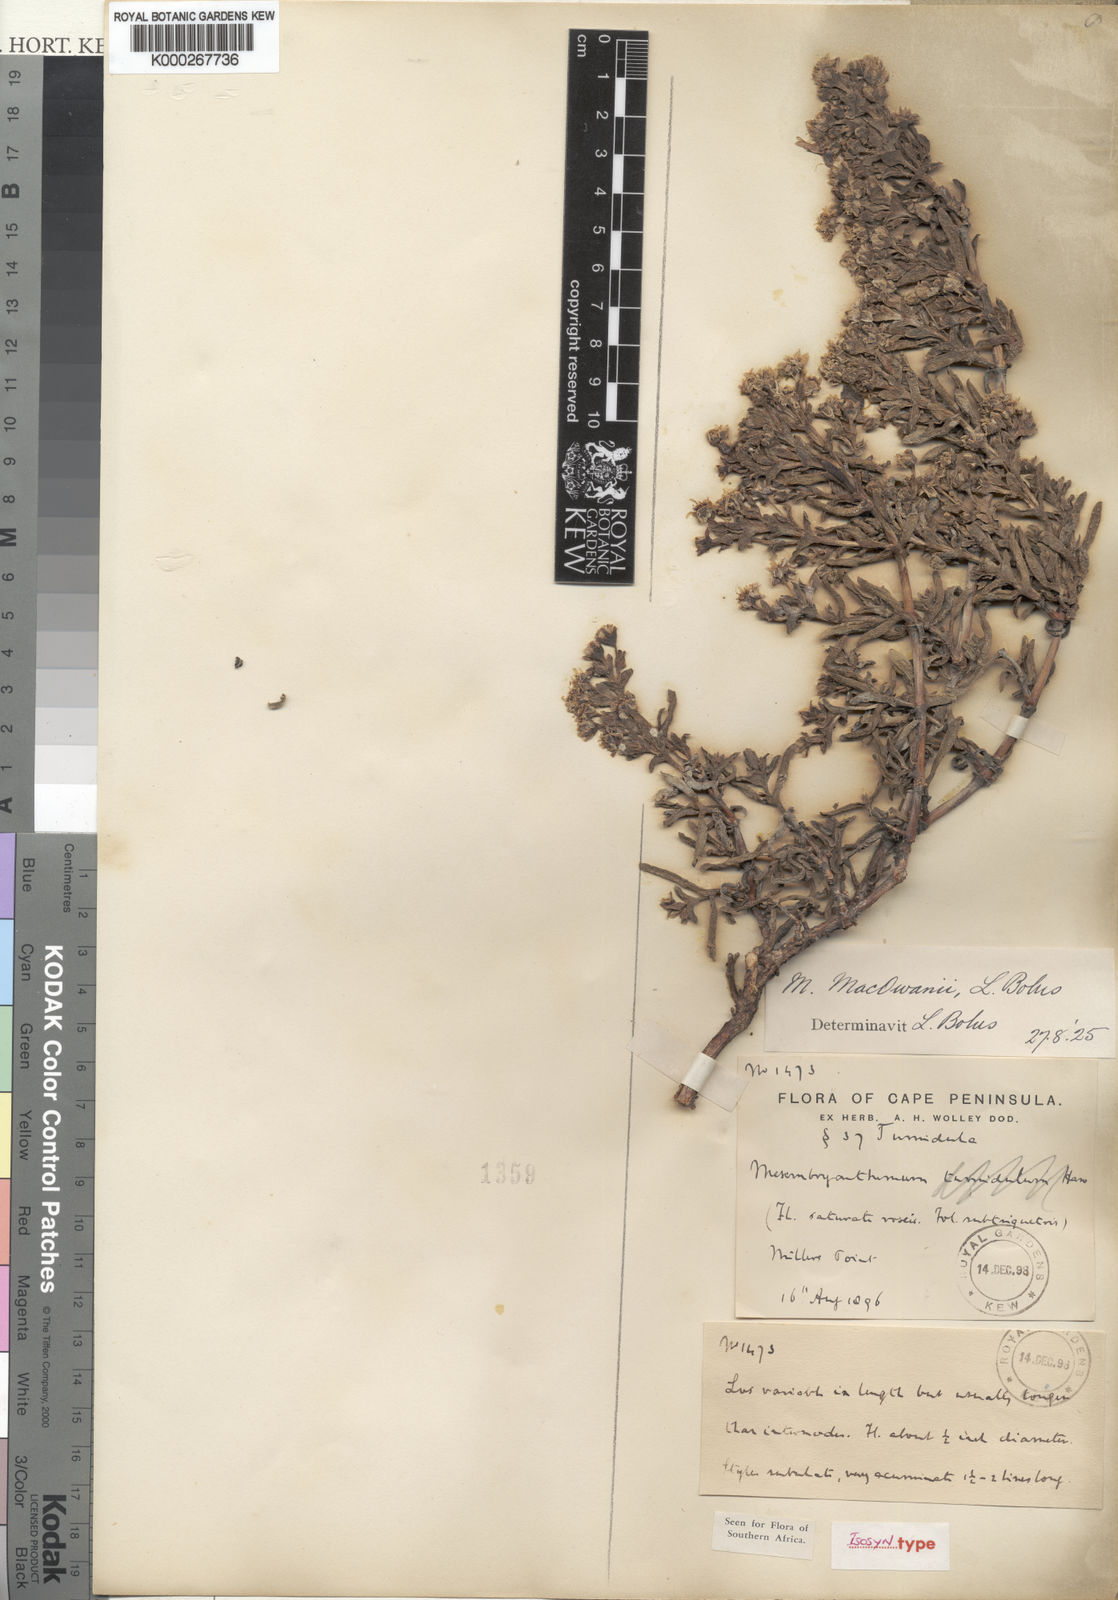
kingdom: Plantae
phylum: Tracheophyta
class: Magnoliopsida
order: Caryophyllales
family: Aizoaceae
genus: Ruschia
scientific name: Ruschia macowanii
